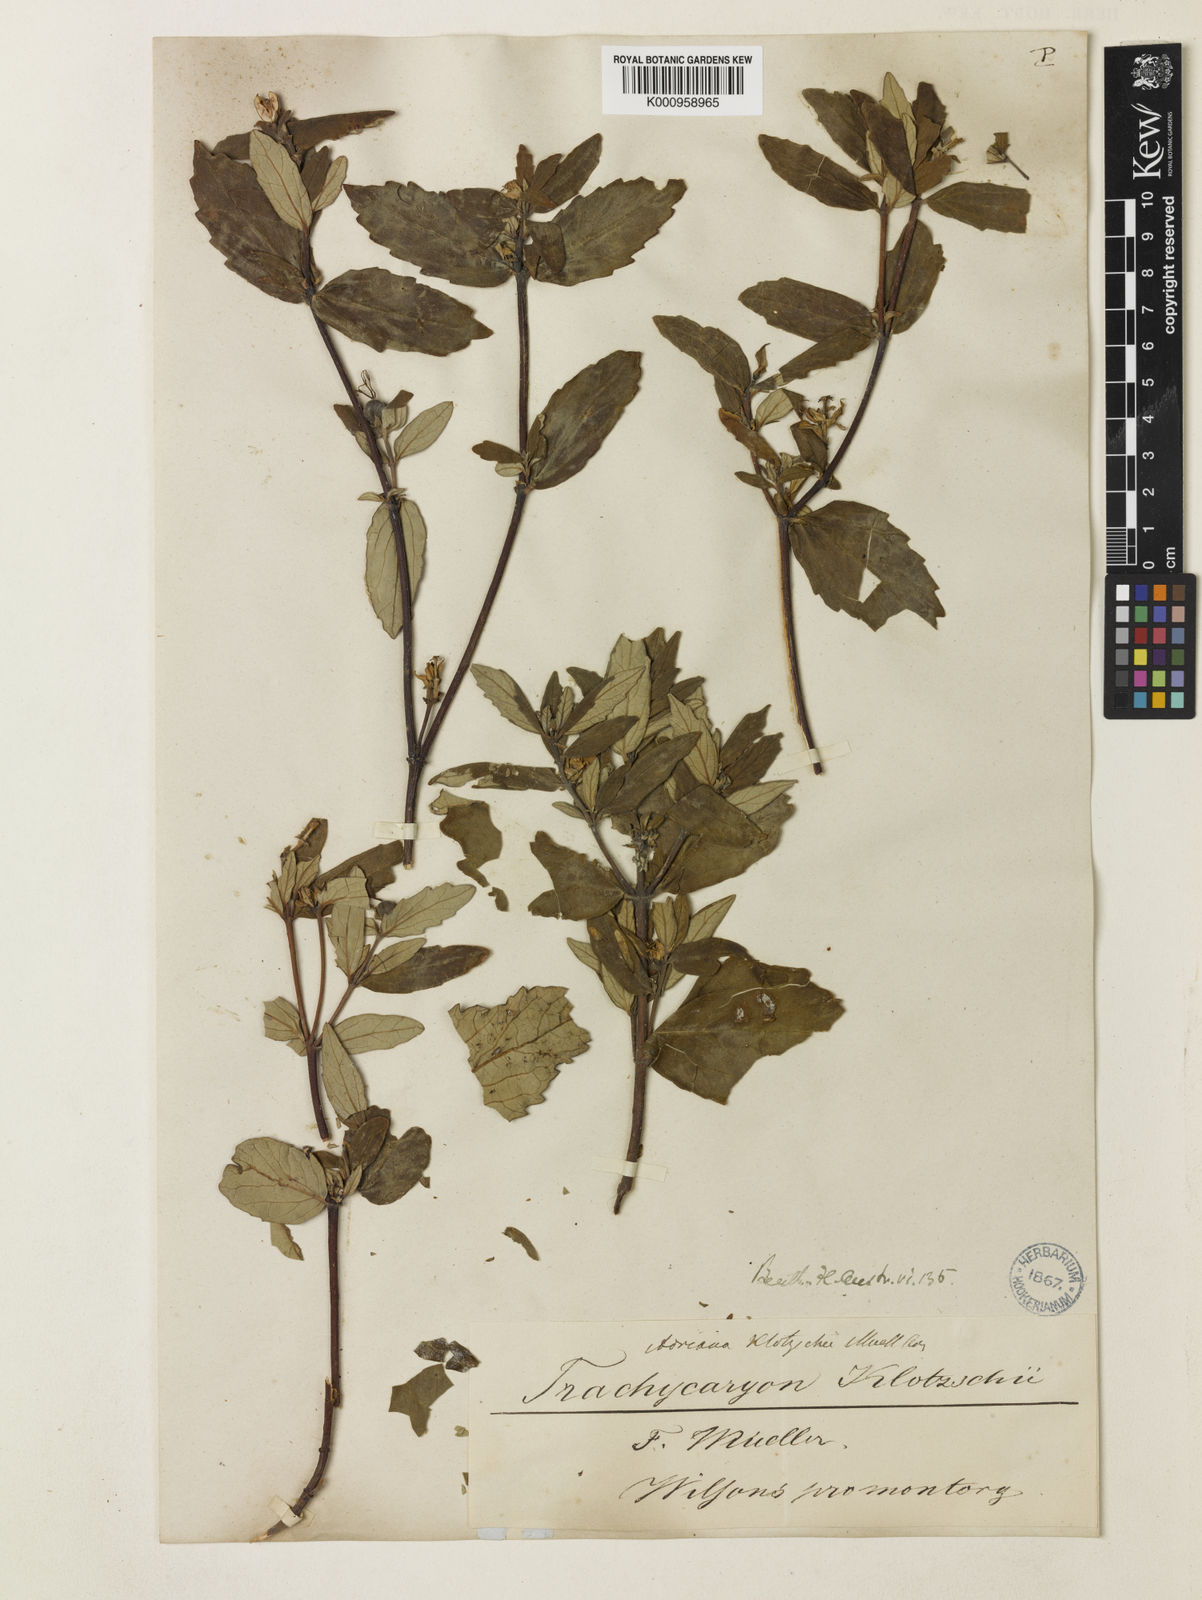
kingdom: Plantae
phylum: Tracheophyta
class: Magnoliopsida
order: Malpighiales
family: Euphorbiaceae
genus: Adriana
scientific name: Adriana
